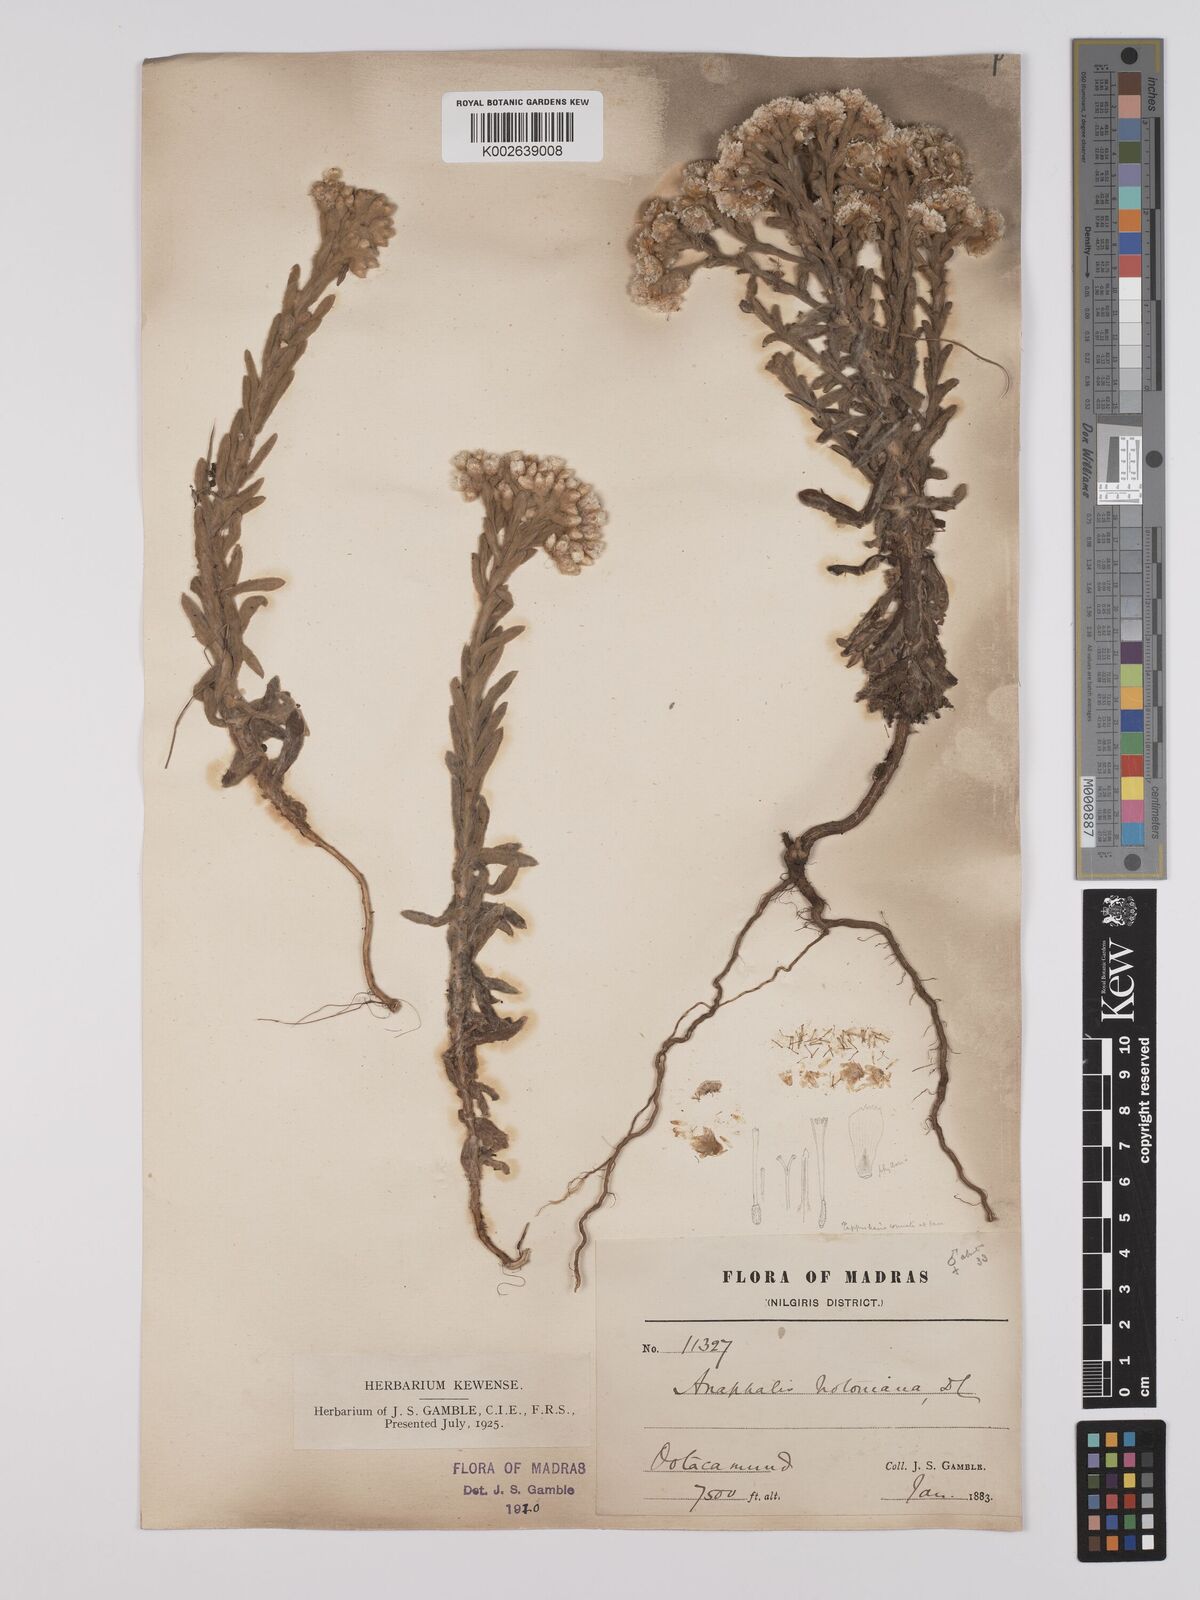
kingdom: Plantae
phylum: Tracheophyta
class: Magnoliopsida
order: Asterales
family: Asteraceae
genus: Anaphalis
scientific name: Anaphalis notoniana
